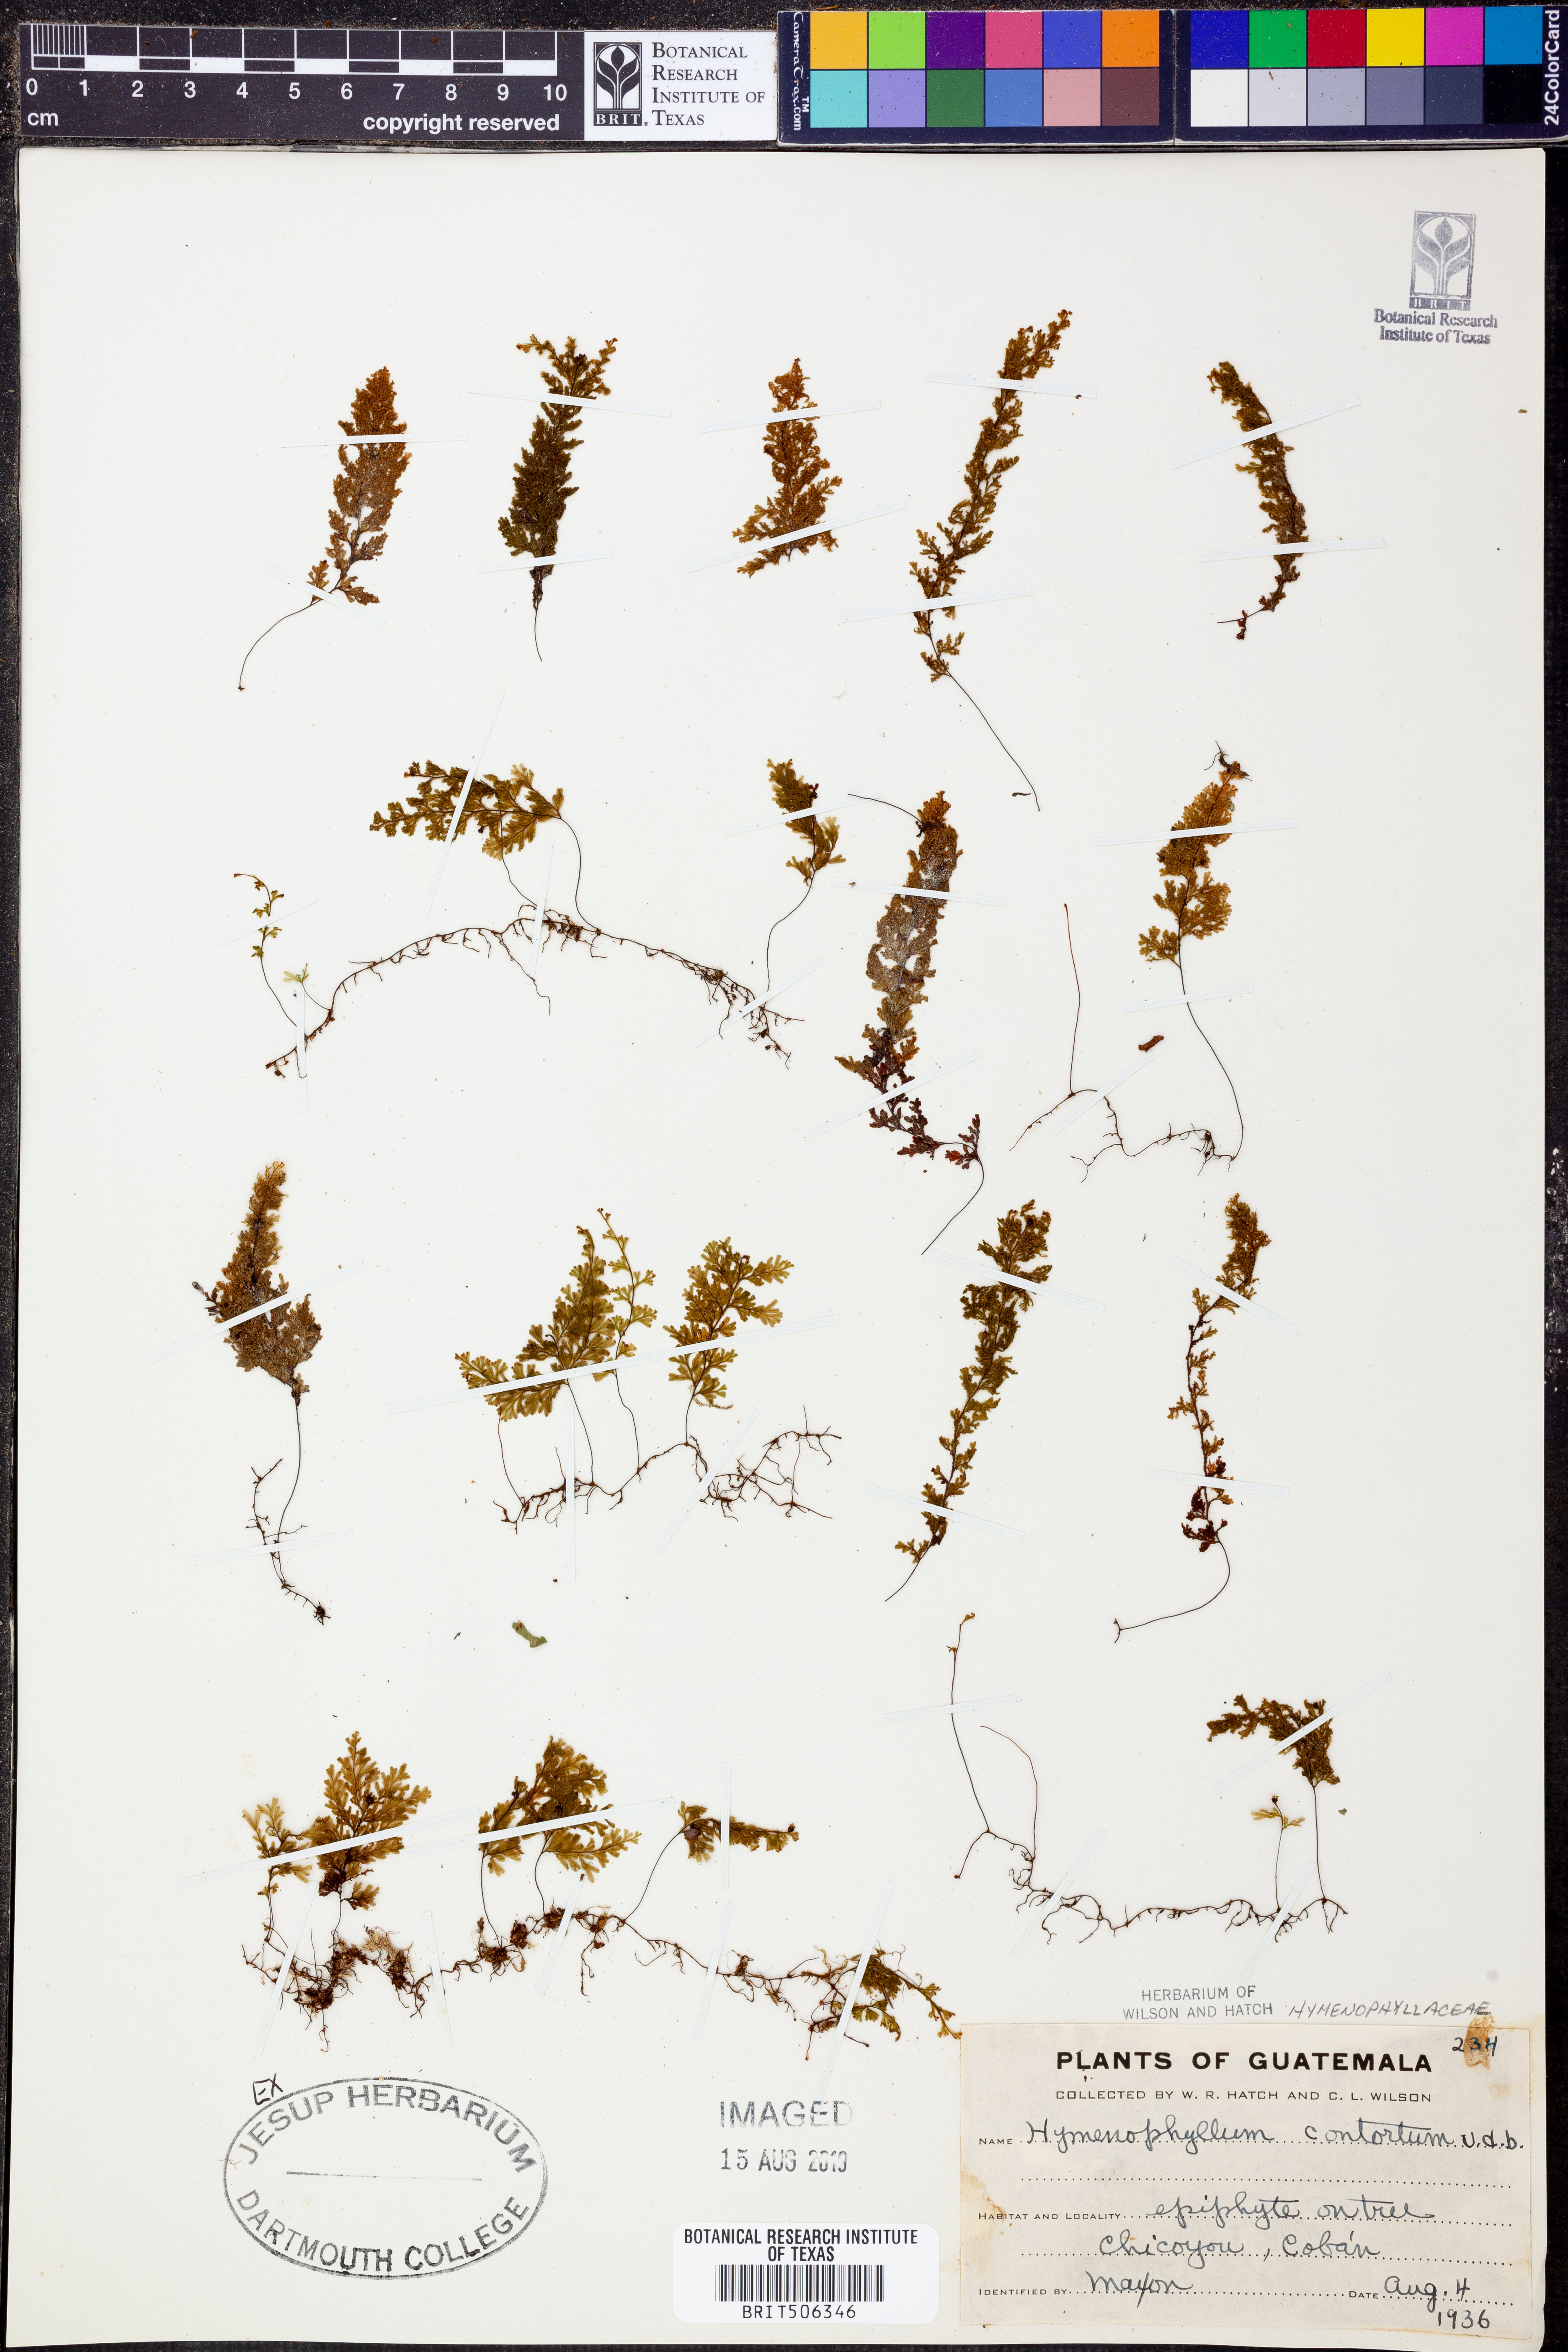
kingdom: Plantae
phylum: Tracheophyta
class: Polypodiopsida
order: Hymenophyllales
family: Hymenophyllaceae
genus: Hymenophyllum
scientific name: Hymenophyllum fendlerianum
